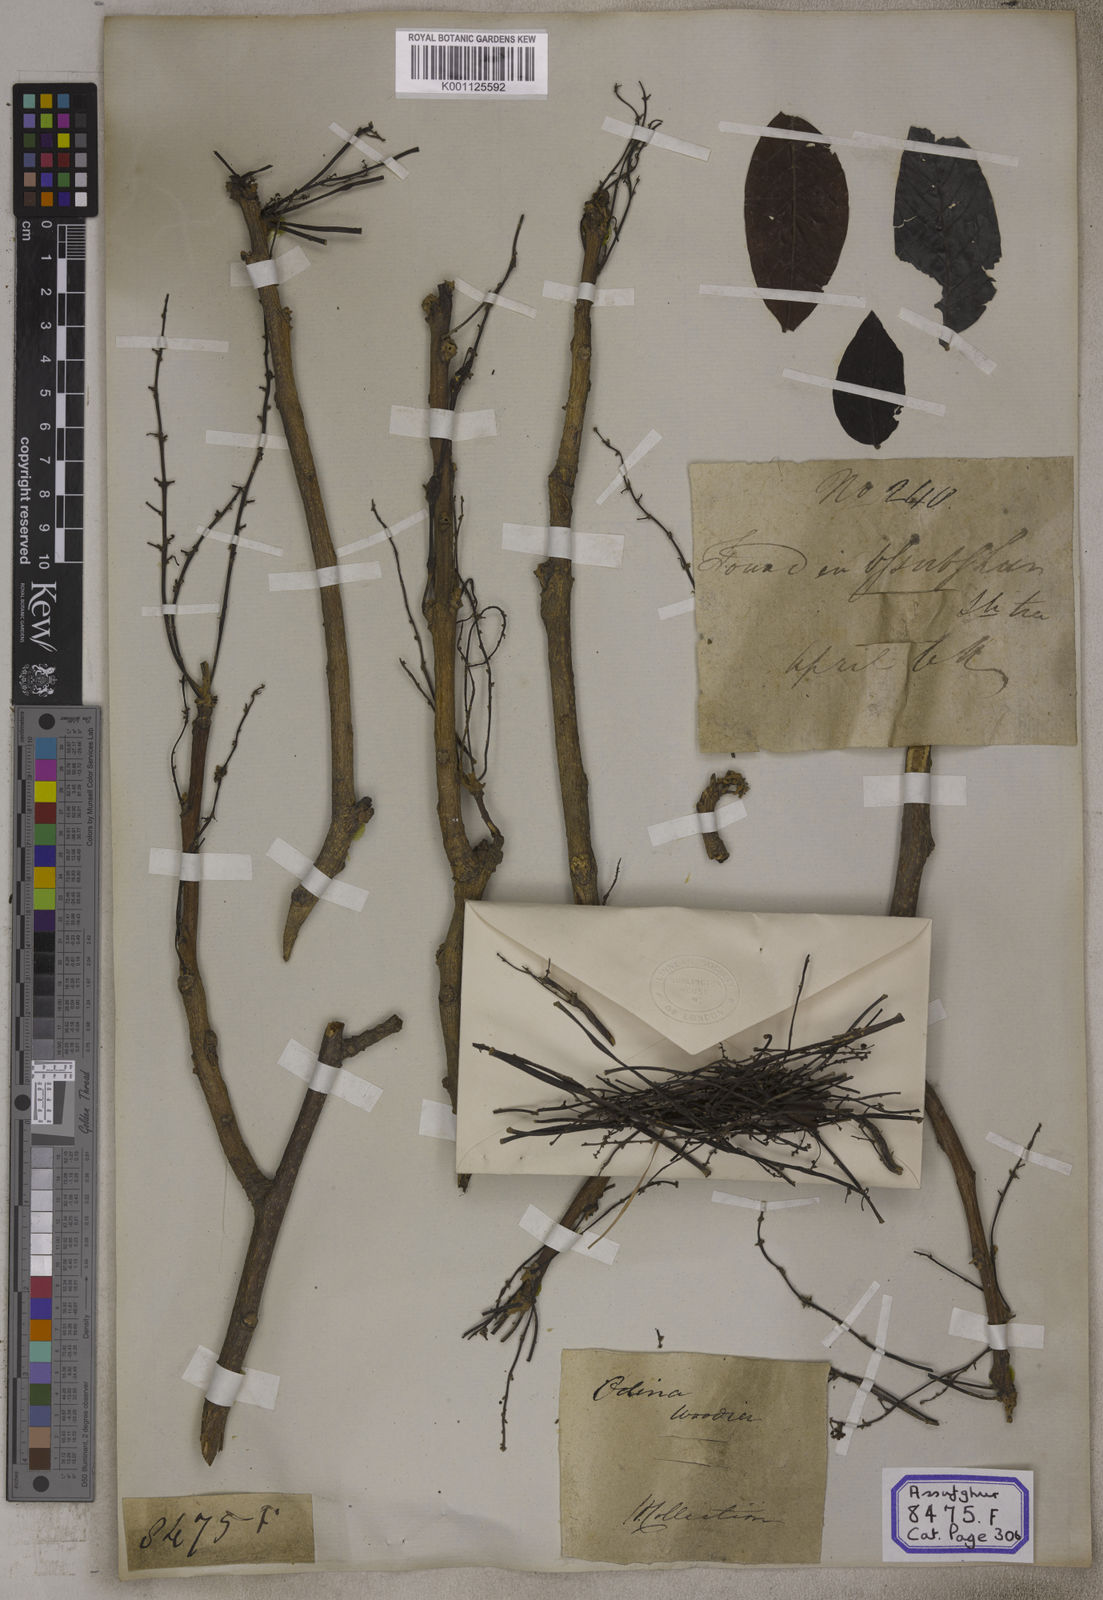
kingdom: Plantae
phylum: Tracheophyta
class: Magnoliopsida
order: Sapindales
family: Anacardiaceae
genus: Lannea
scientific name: Lannea coromandelica
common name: Indian ash tree
